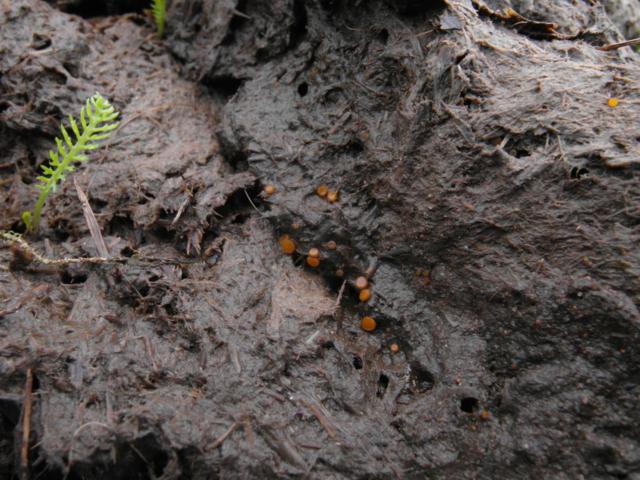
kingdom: Fungi
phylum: Ascomycota
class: Pezizomycetes
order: Pezizales
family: Pyronemataceae
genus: Cheilymenia
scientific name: Cheilymenia granulata
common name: møgbæger
